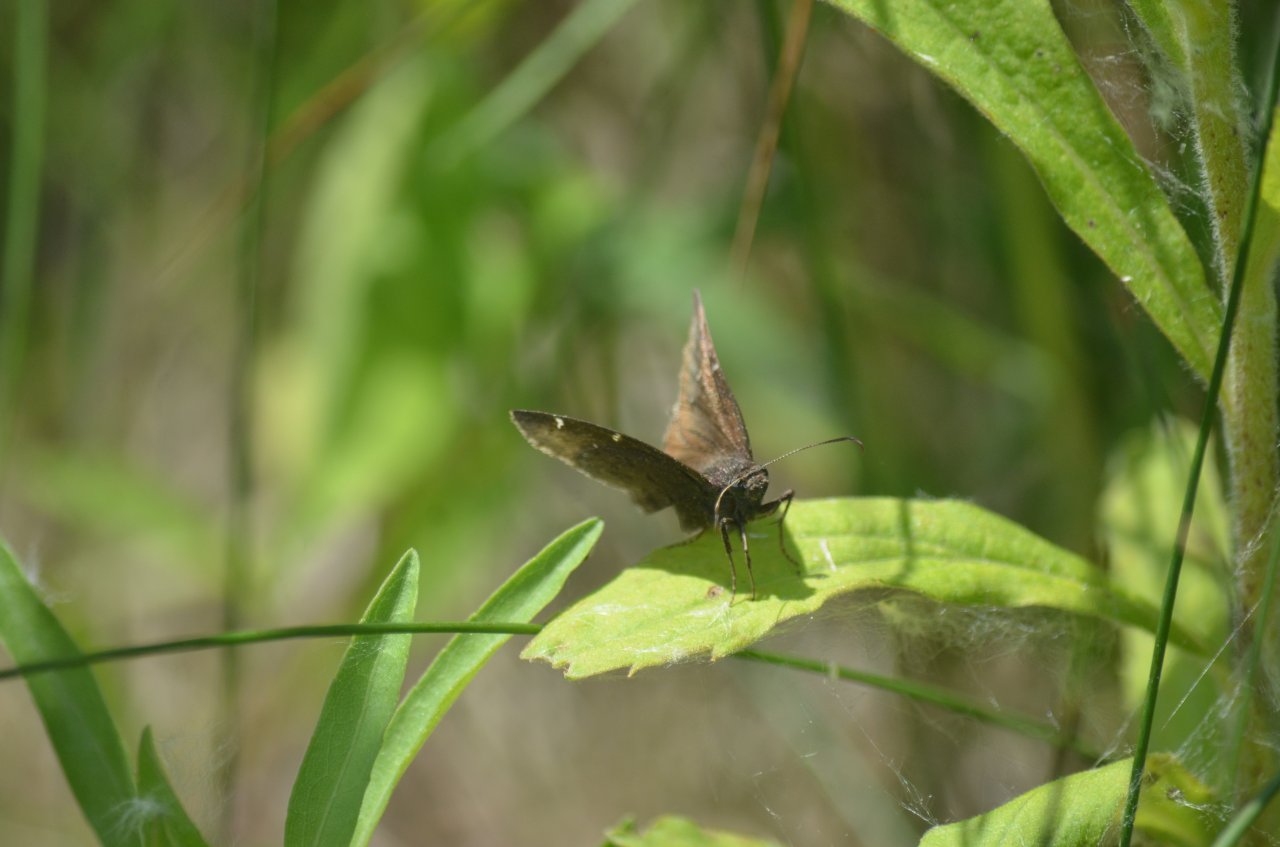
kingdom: Animalia
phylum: Arthropoda
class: Insecta
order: Lepidoptera
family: Hesperiidae
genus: Autochton
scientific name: Autochton
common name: Northern Cloudywing
